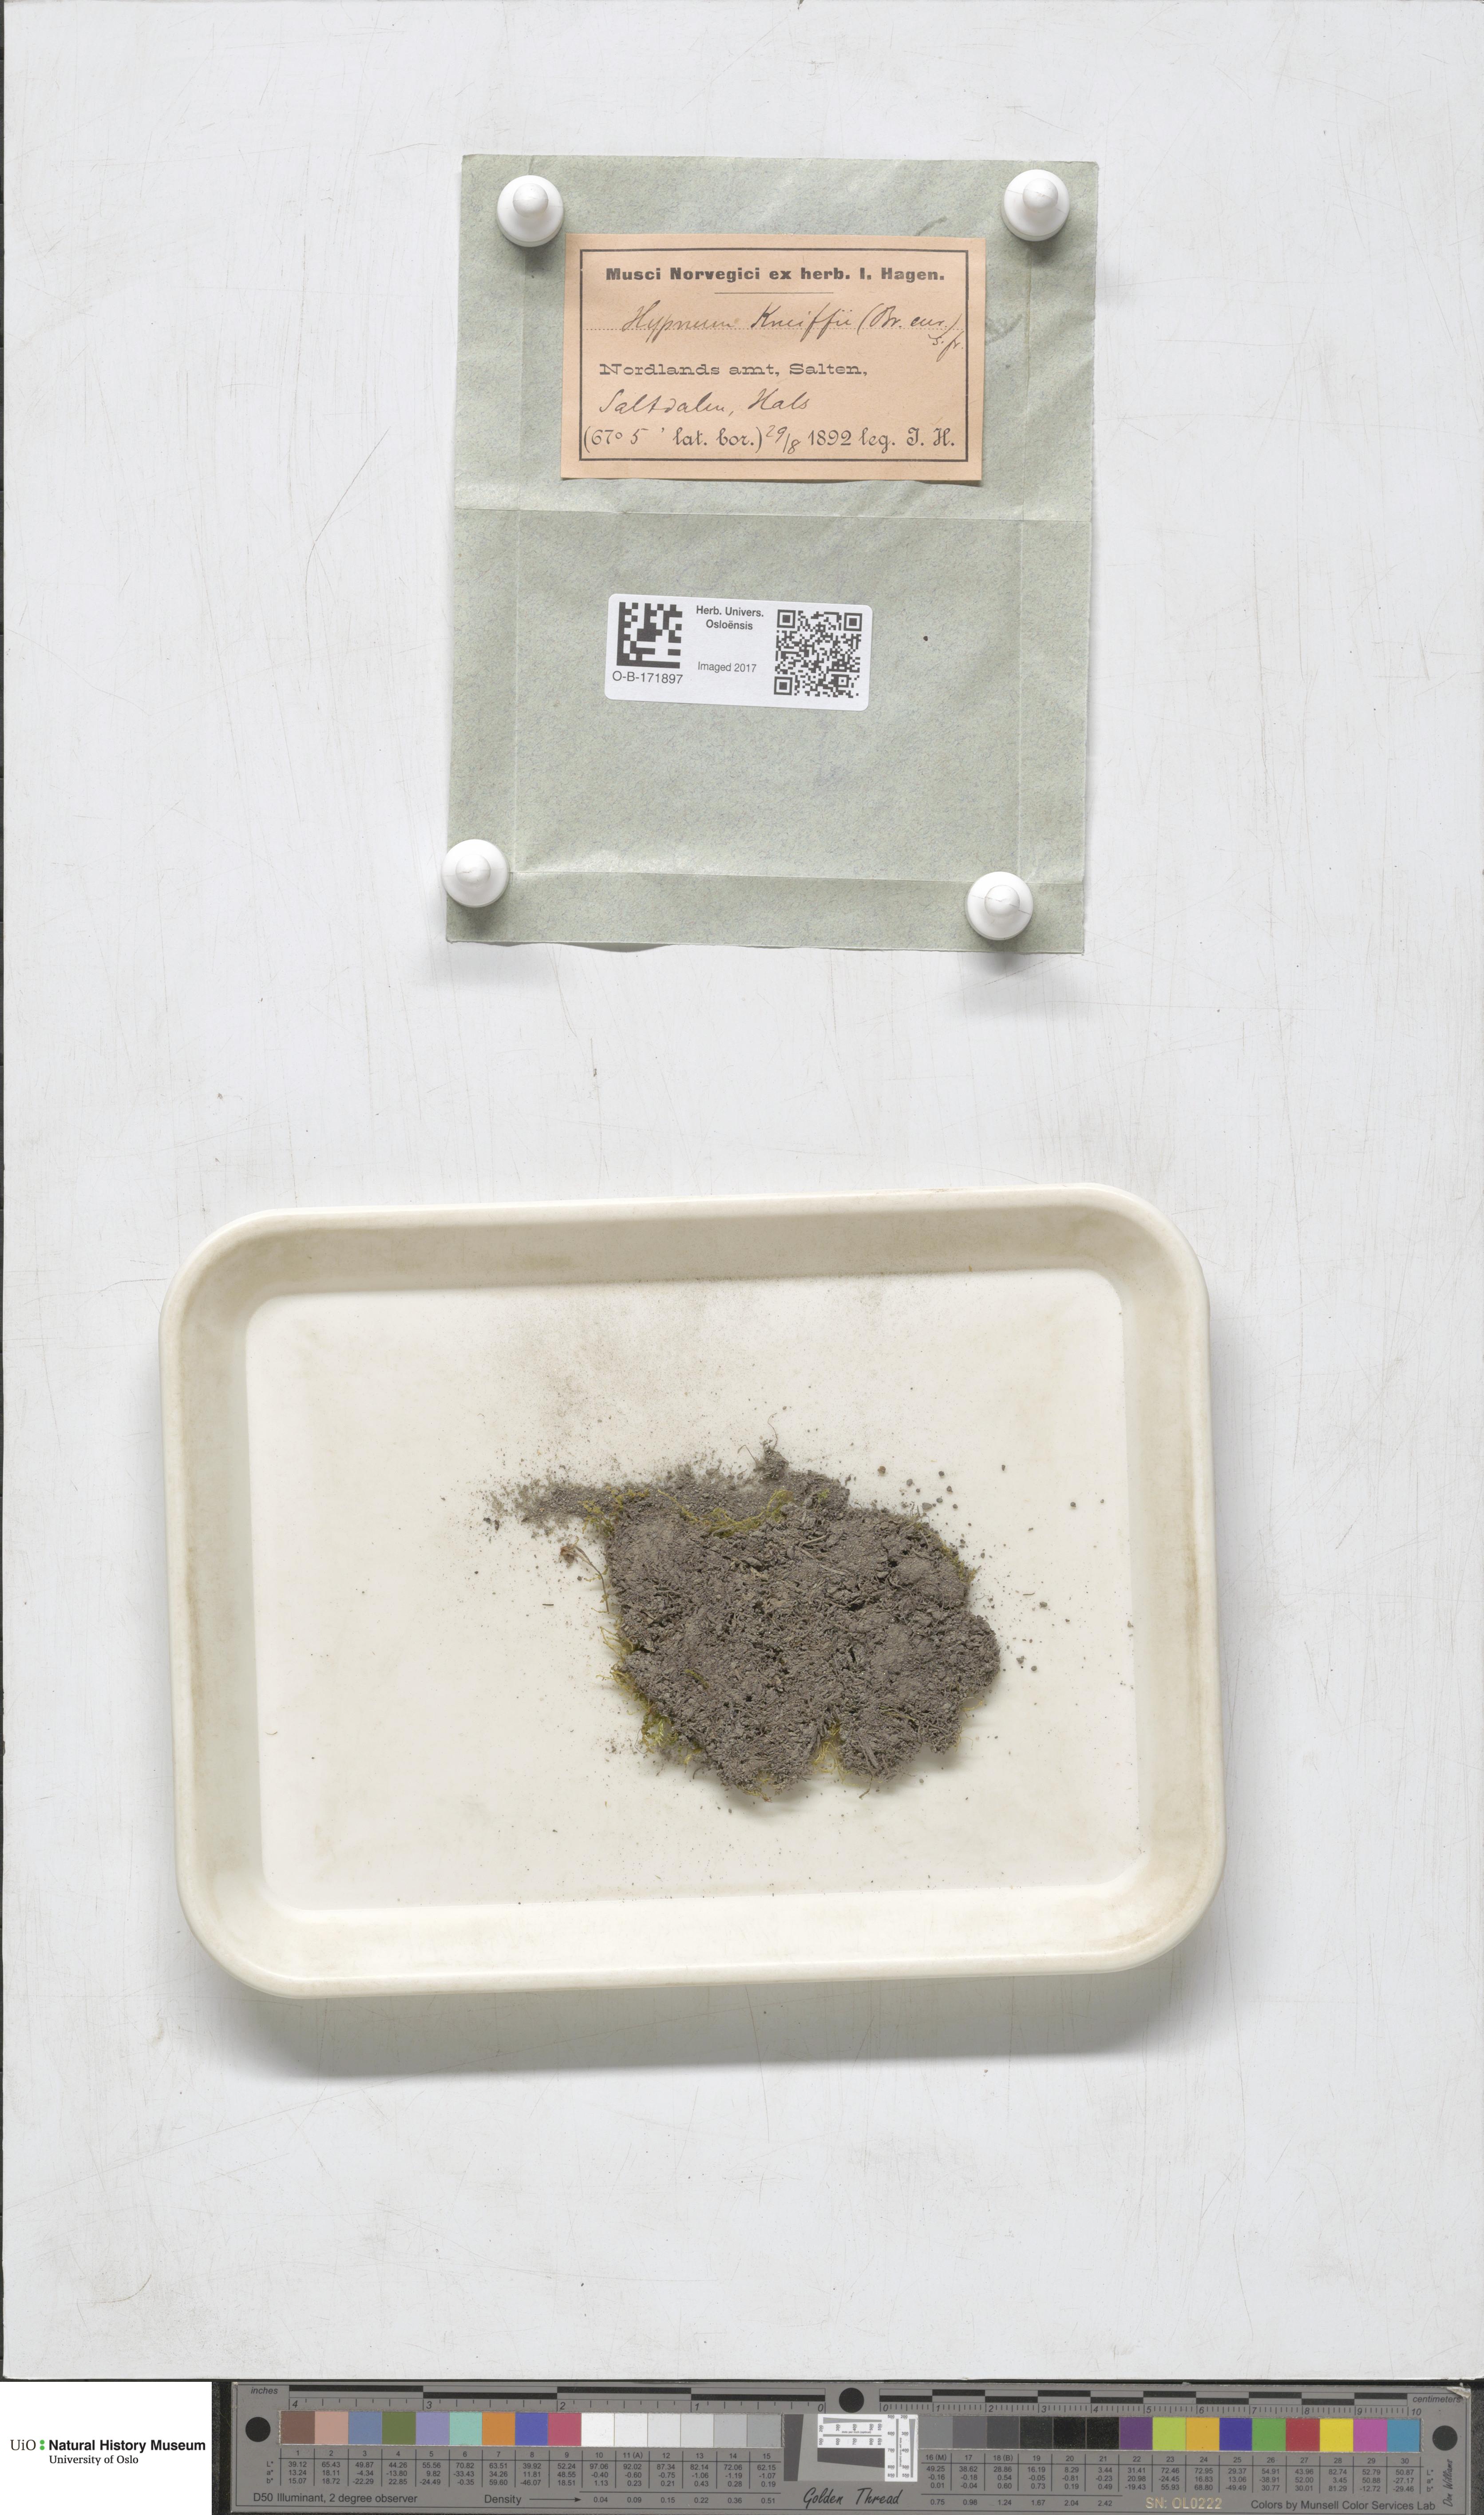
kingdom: Plantae
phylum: Bryophyta
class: Bryopsida
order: Hypnales
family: Amblystegiaceae
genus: Drepanocladus
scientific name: Drepanocladus aduncus
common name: Knieff's hook moss
